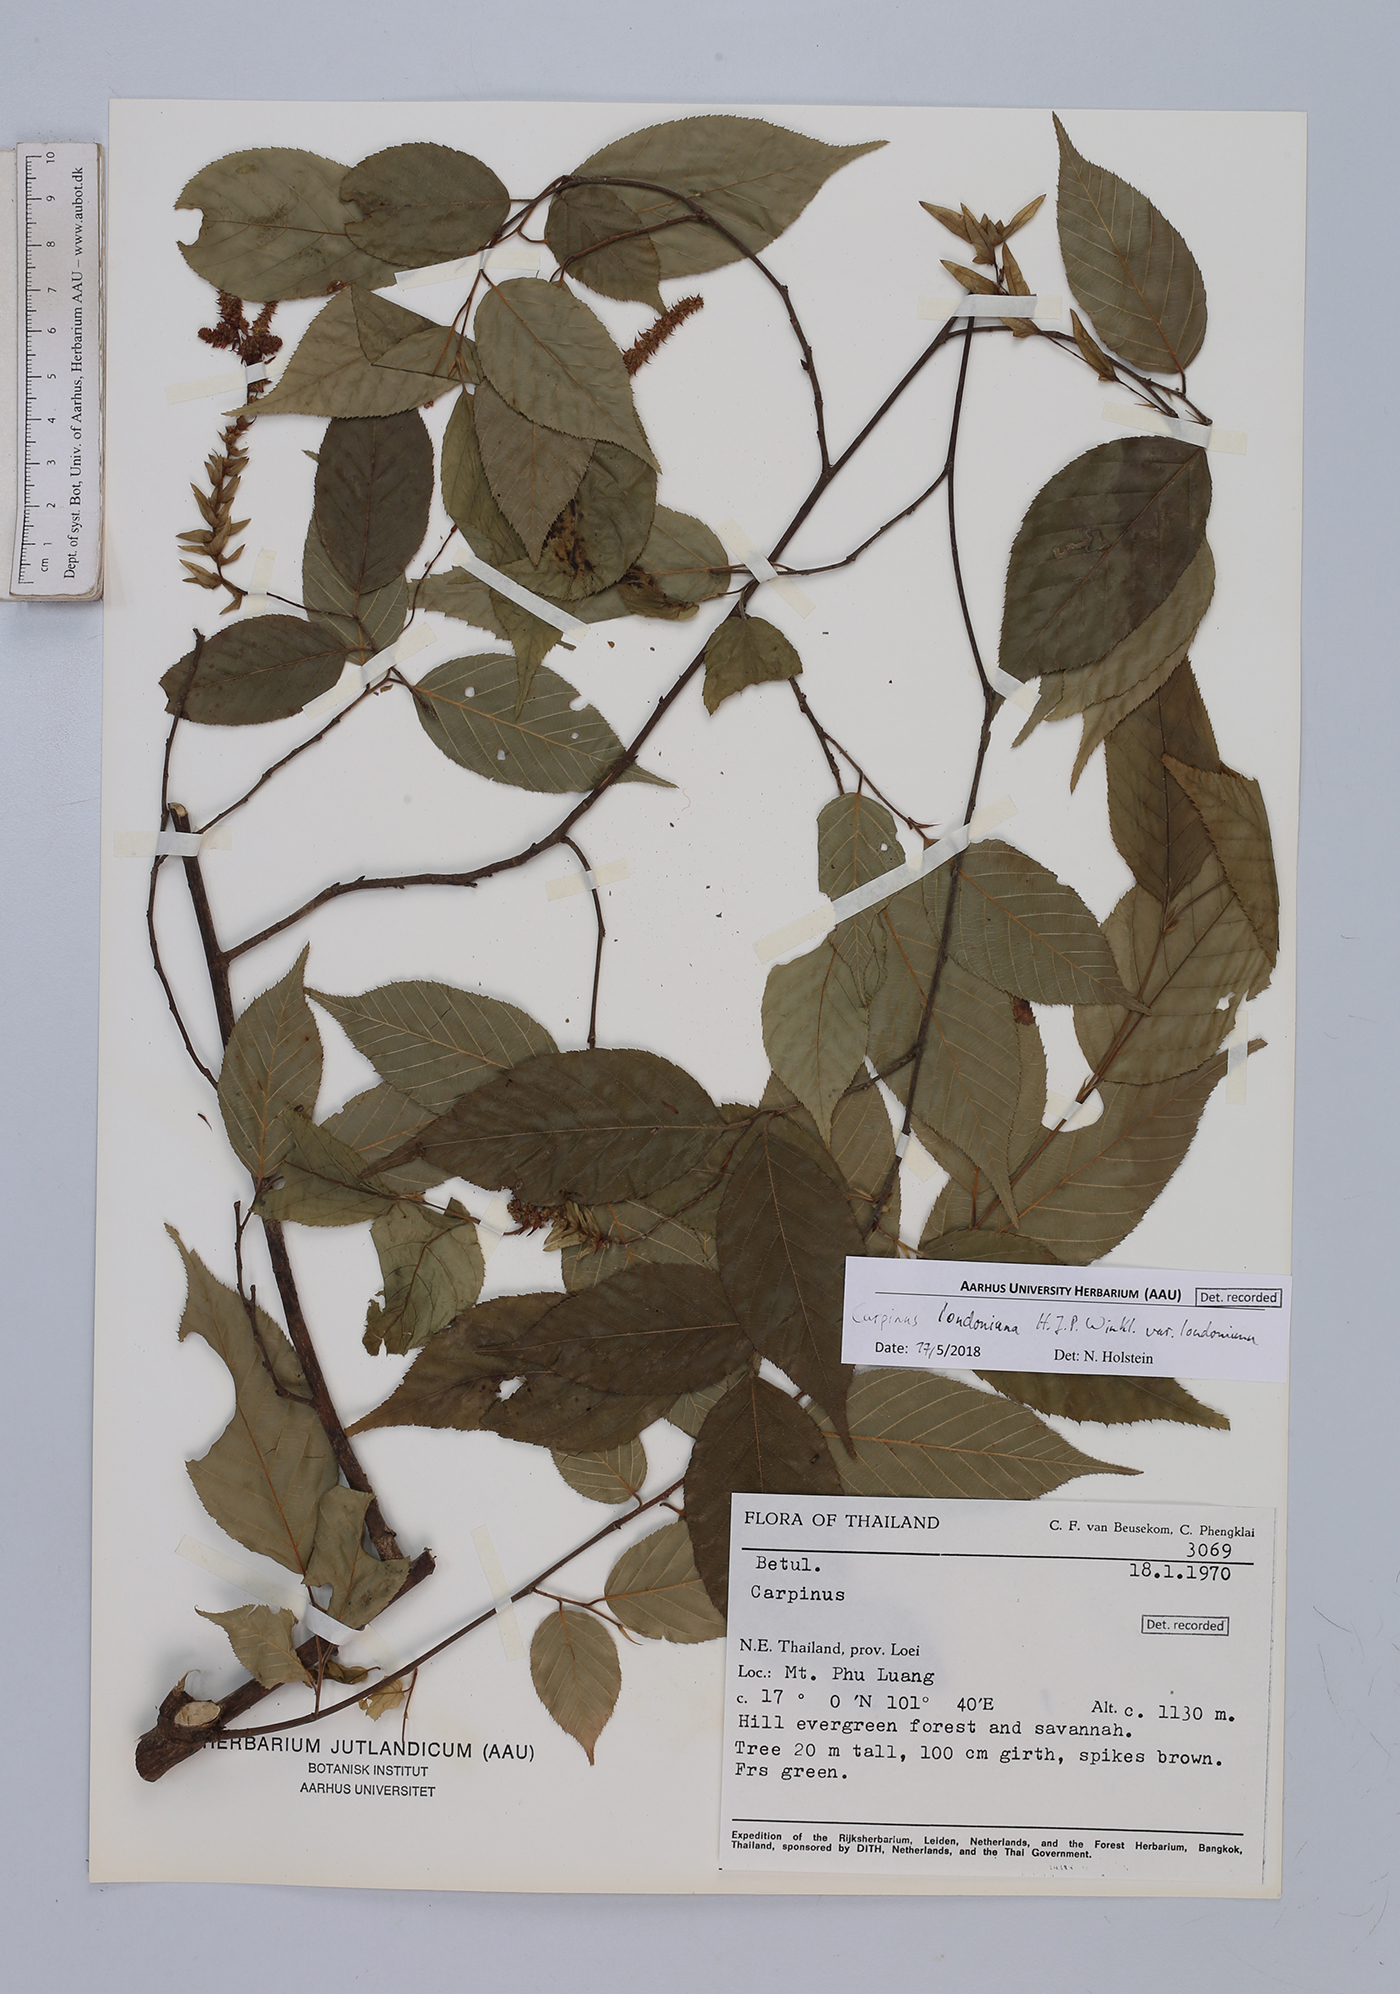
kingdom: Plantae
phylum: Tracheophyta
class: Magnoliopsida
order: Fagales
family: Betulaceae
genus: Carpinus
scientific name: Carpinus londoniana
